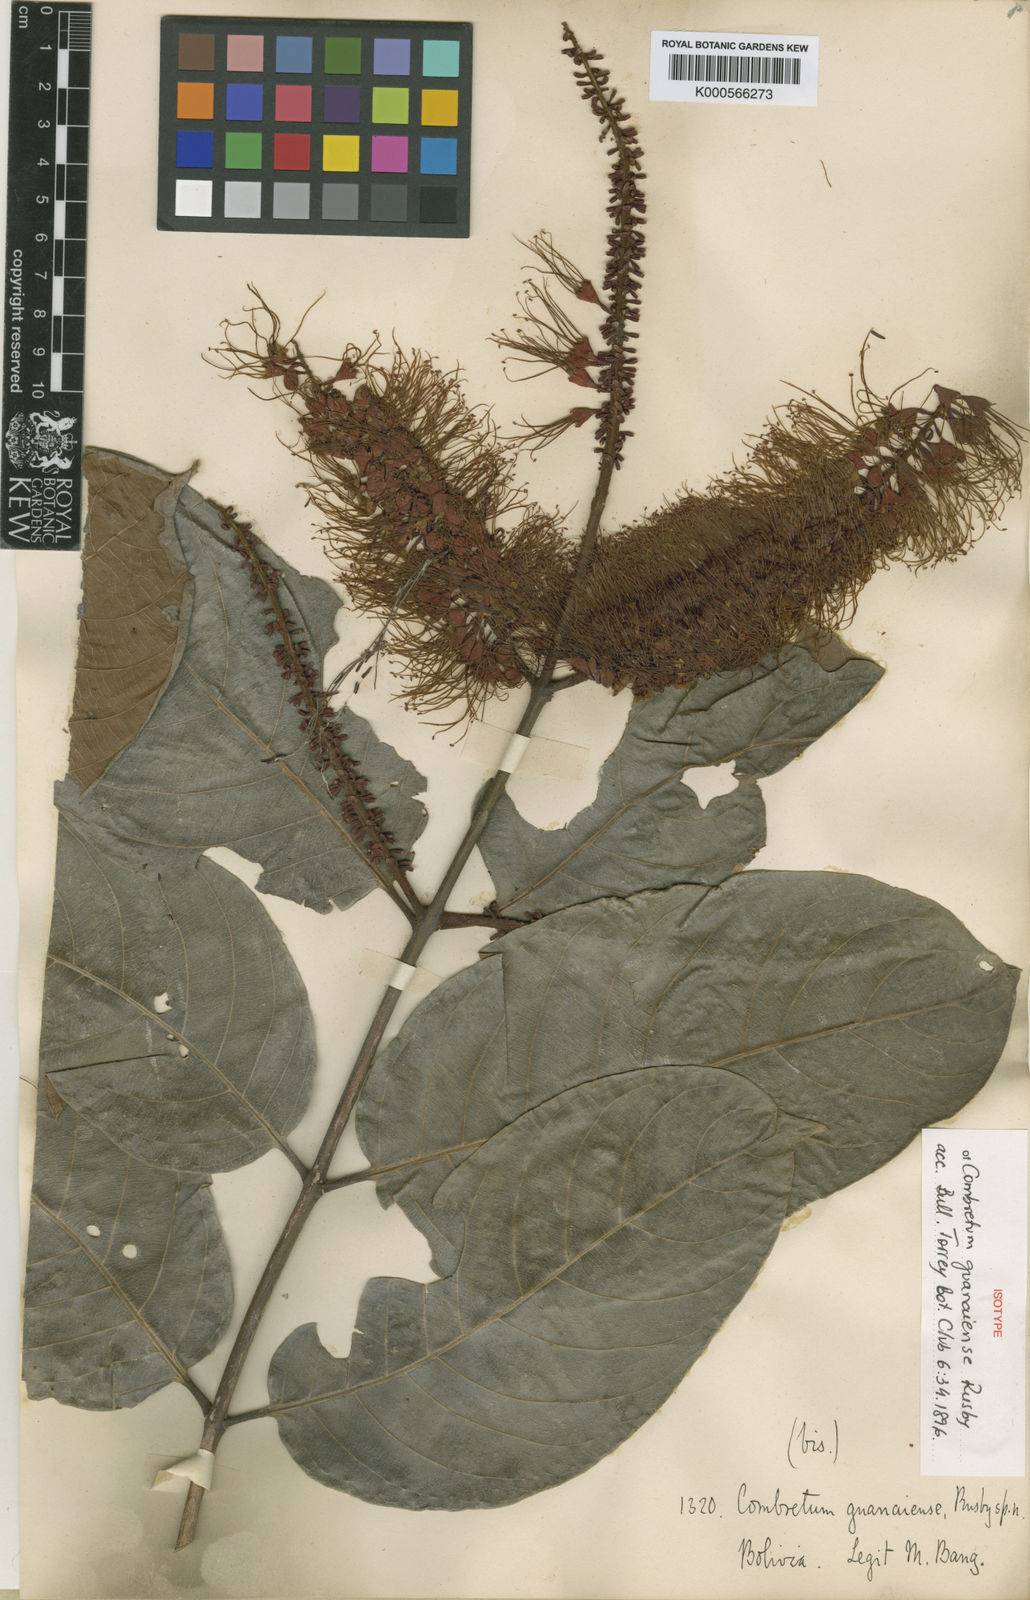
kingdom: Plantae
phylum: Tracheophyta
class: Magnoliopsida
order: Myrtales
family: Combretaceae
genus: Combretum
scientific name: Combretum assimile
